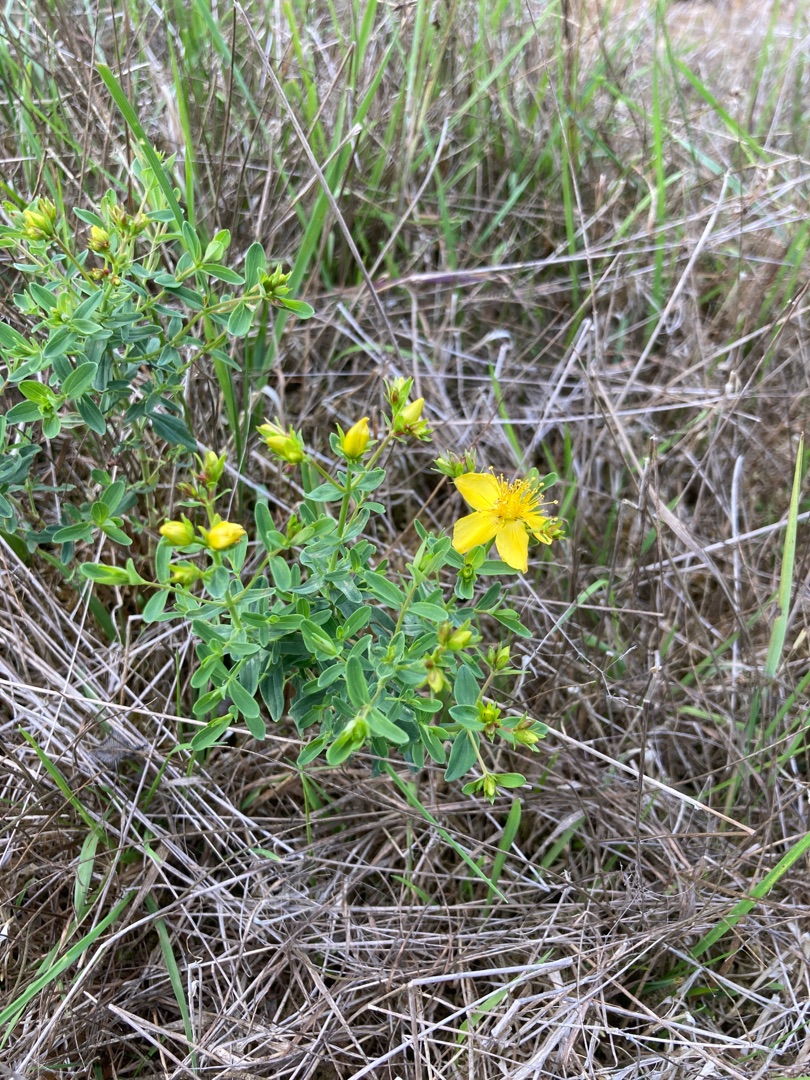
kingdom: Plantae
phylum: Tracheophyta
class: Magnoliopsida
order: Malpighiales
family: Hypericaceae
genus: Hypericum
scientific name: Hypericum perforatum
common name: Prikbladet perikon
